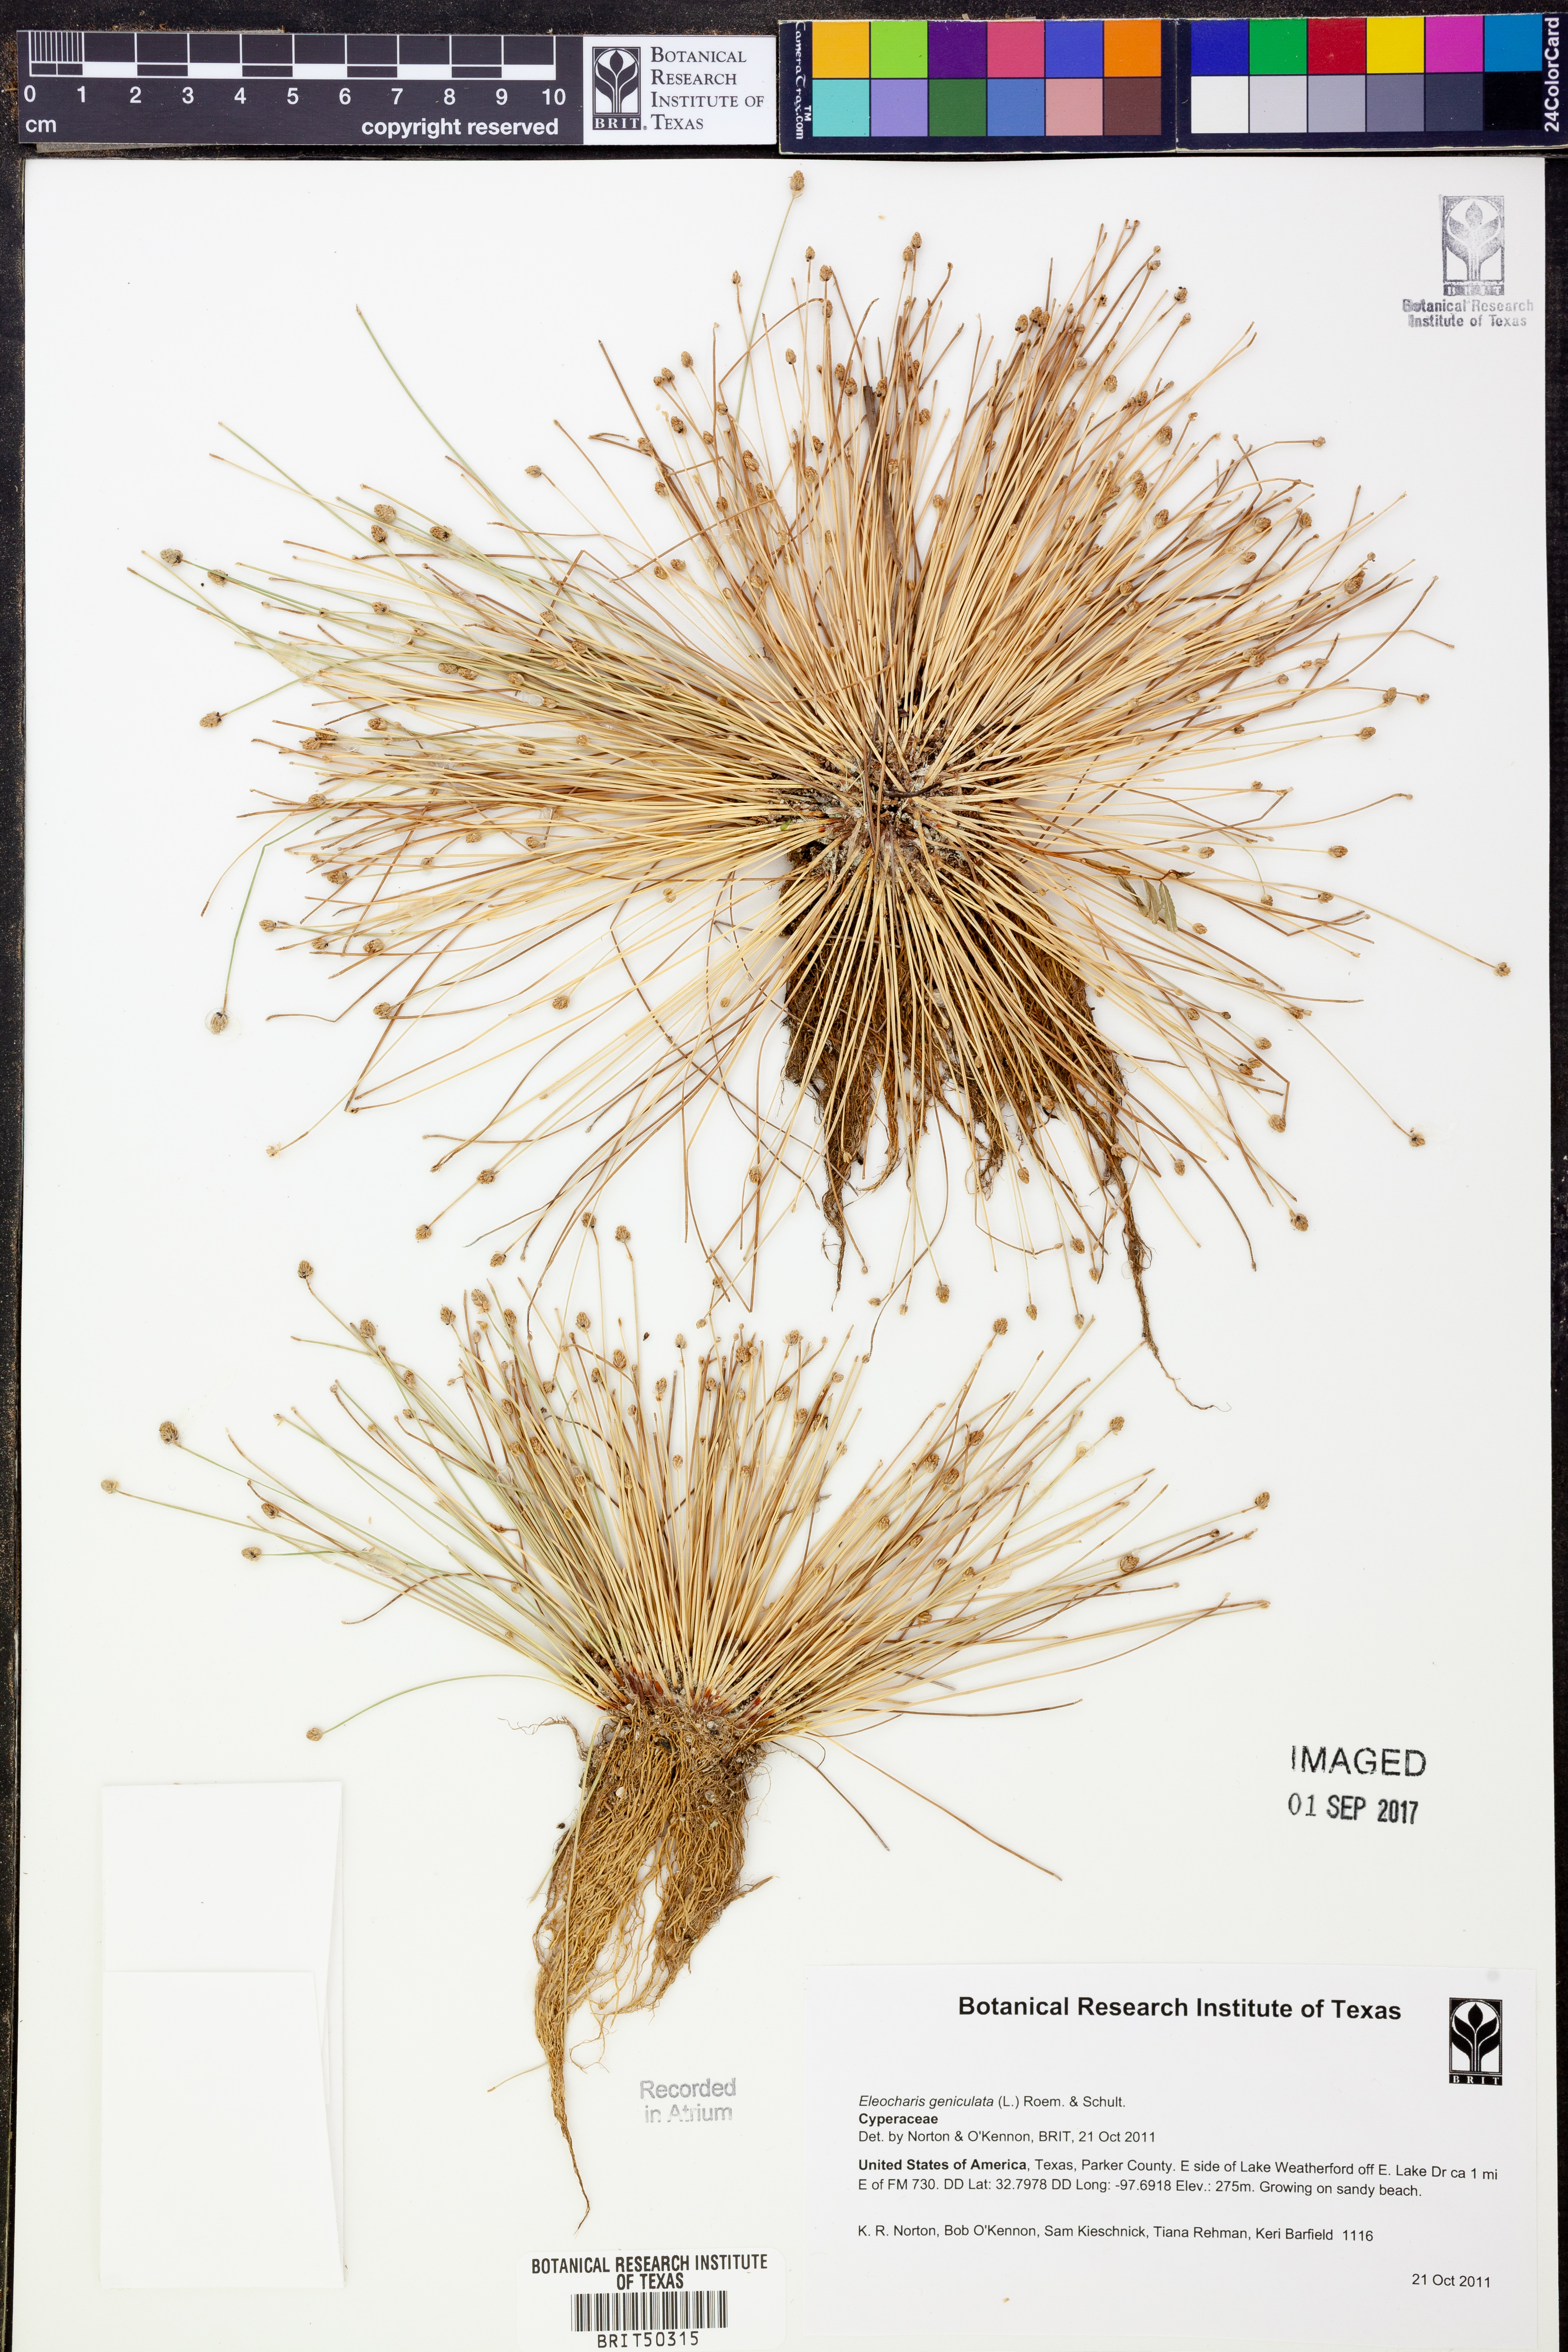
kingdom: Plantae
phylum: Tracheophyta
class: Liliopsida
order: Poales
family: Cyperaceae
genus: Eleocharis
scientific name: Eleocharis geniculata
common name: Canada spikesedge
